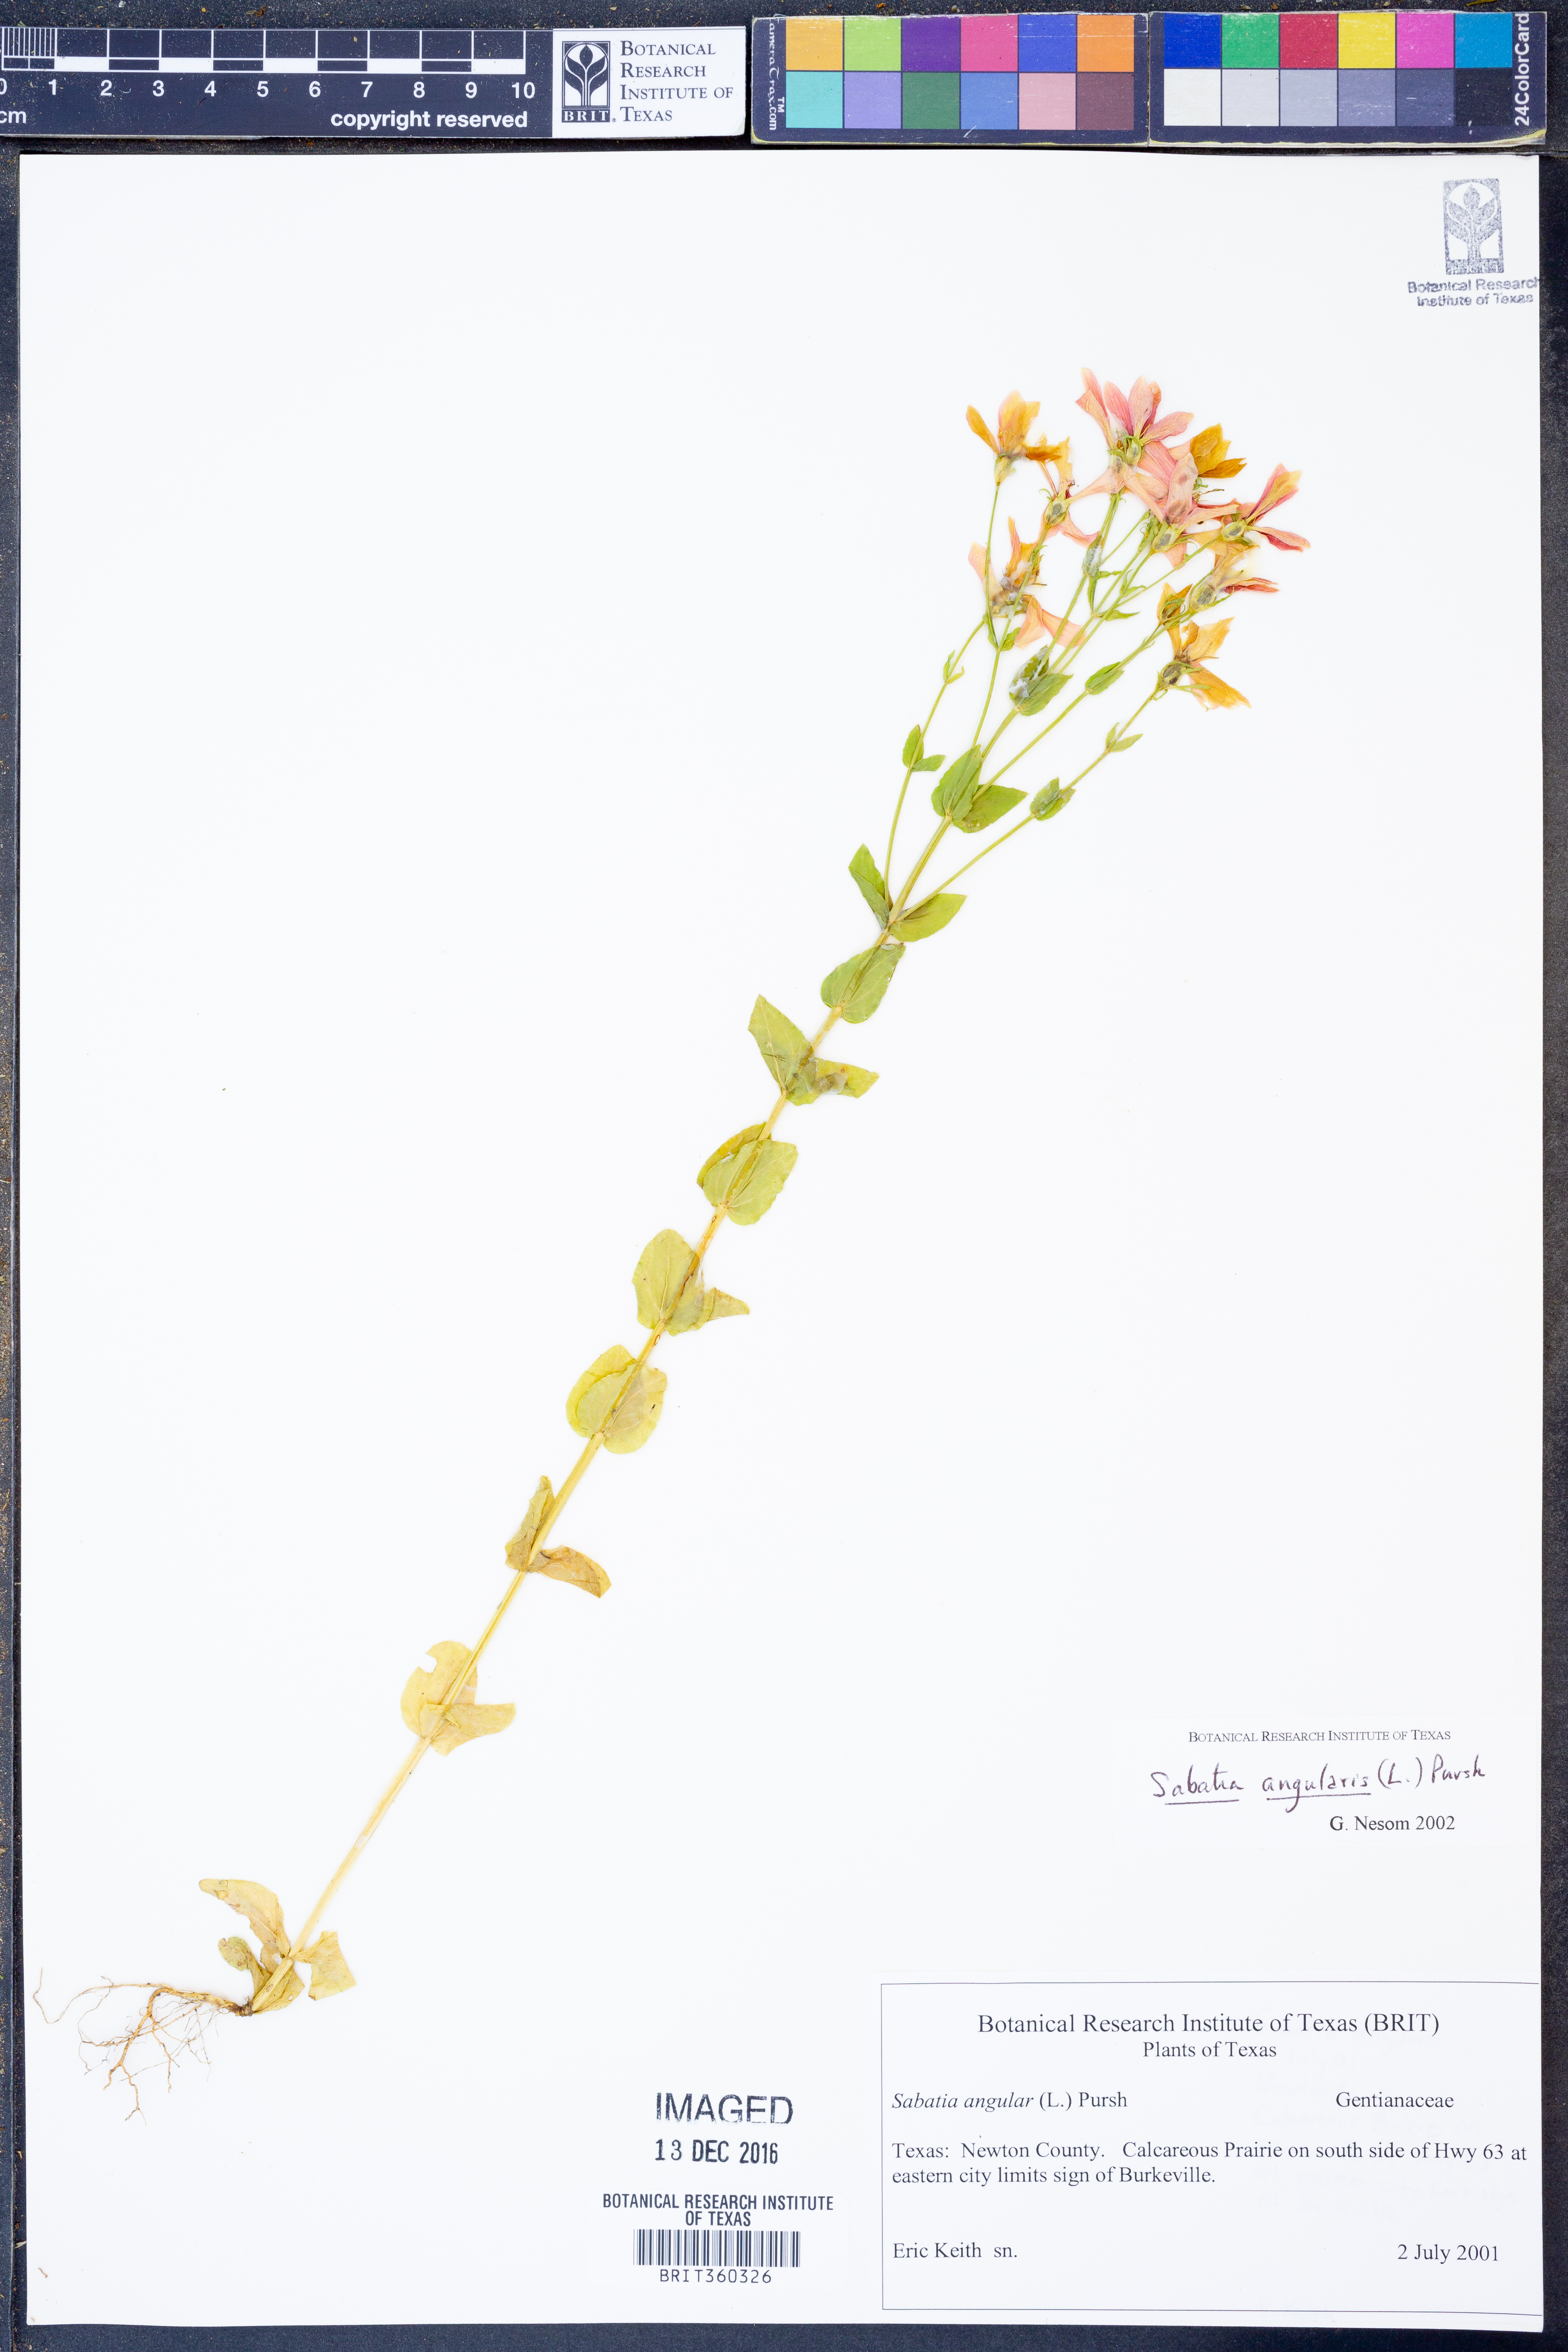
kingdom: Plantae
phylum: Tracheophyta
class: Magnoliopsida
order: Gentianales
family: Gentianaceae
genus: Sabatia
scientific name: Sabatia angularis
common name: Rose-pink
